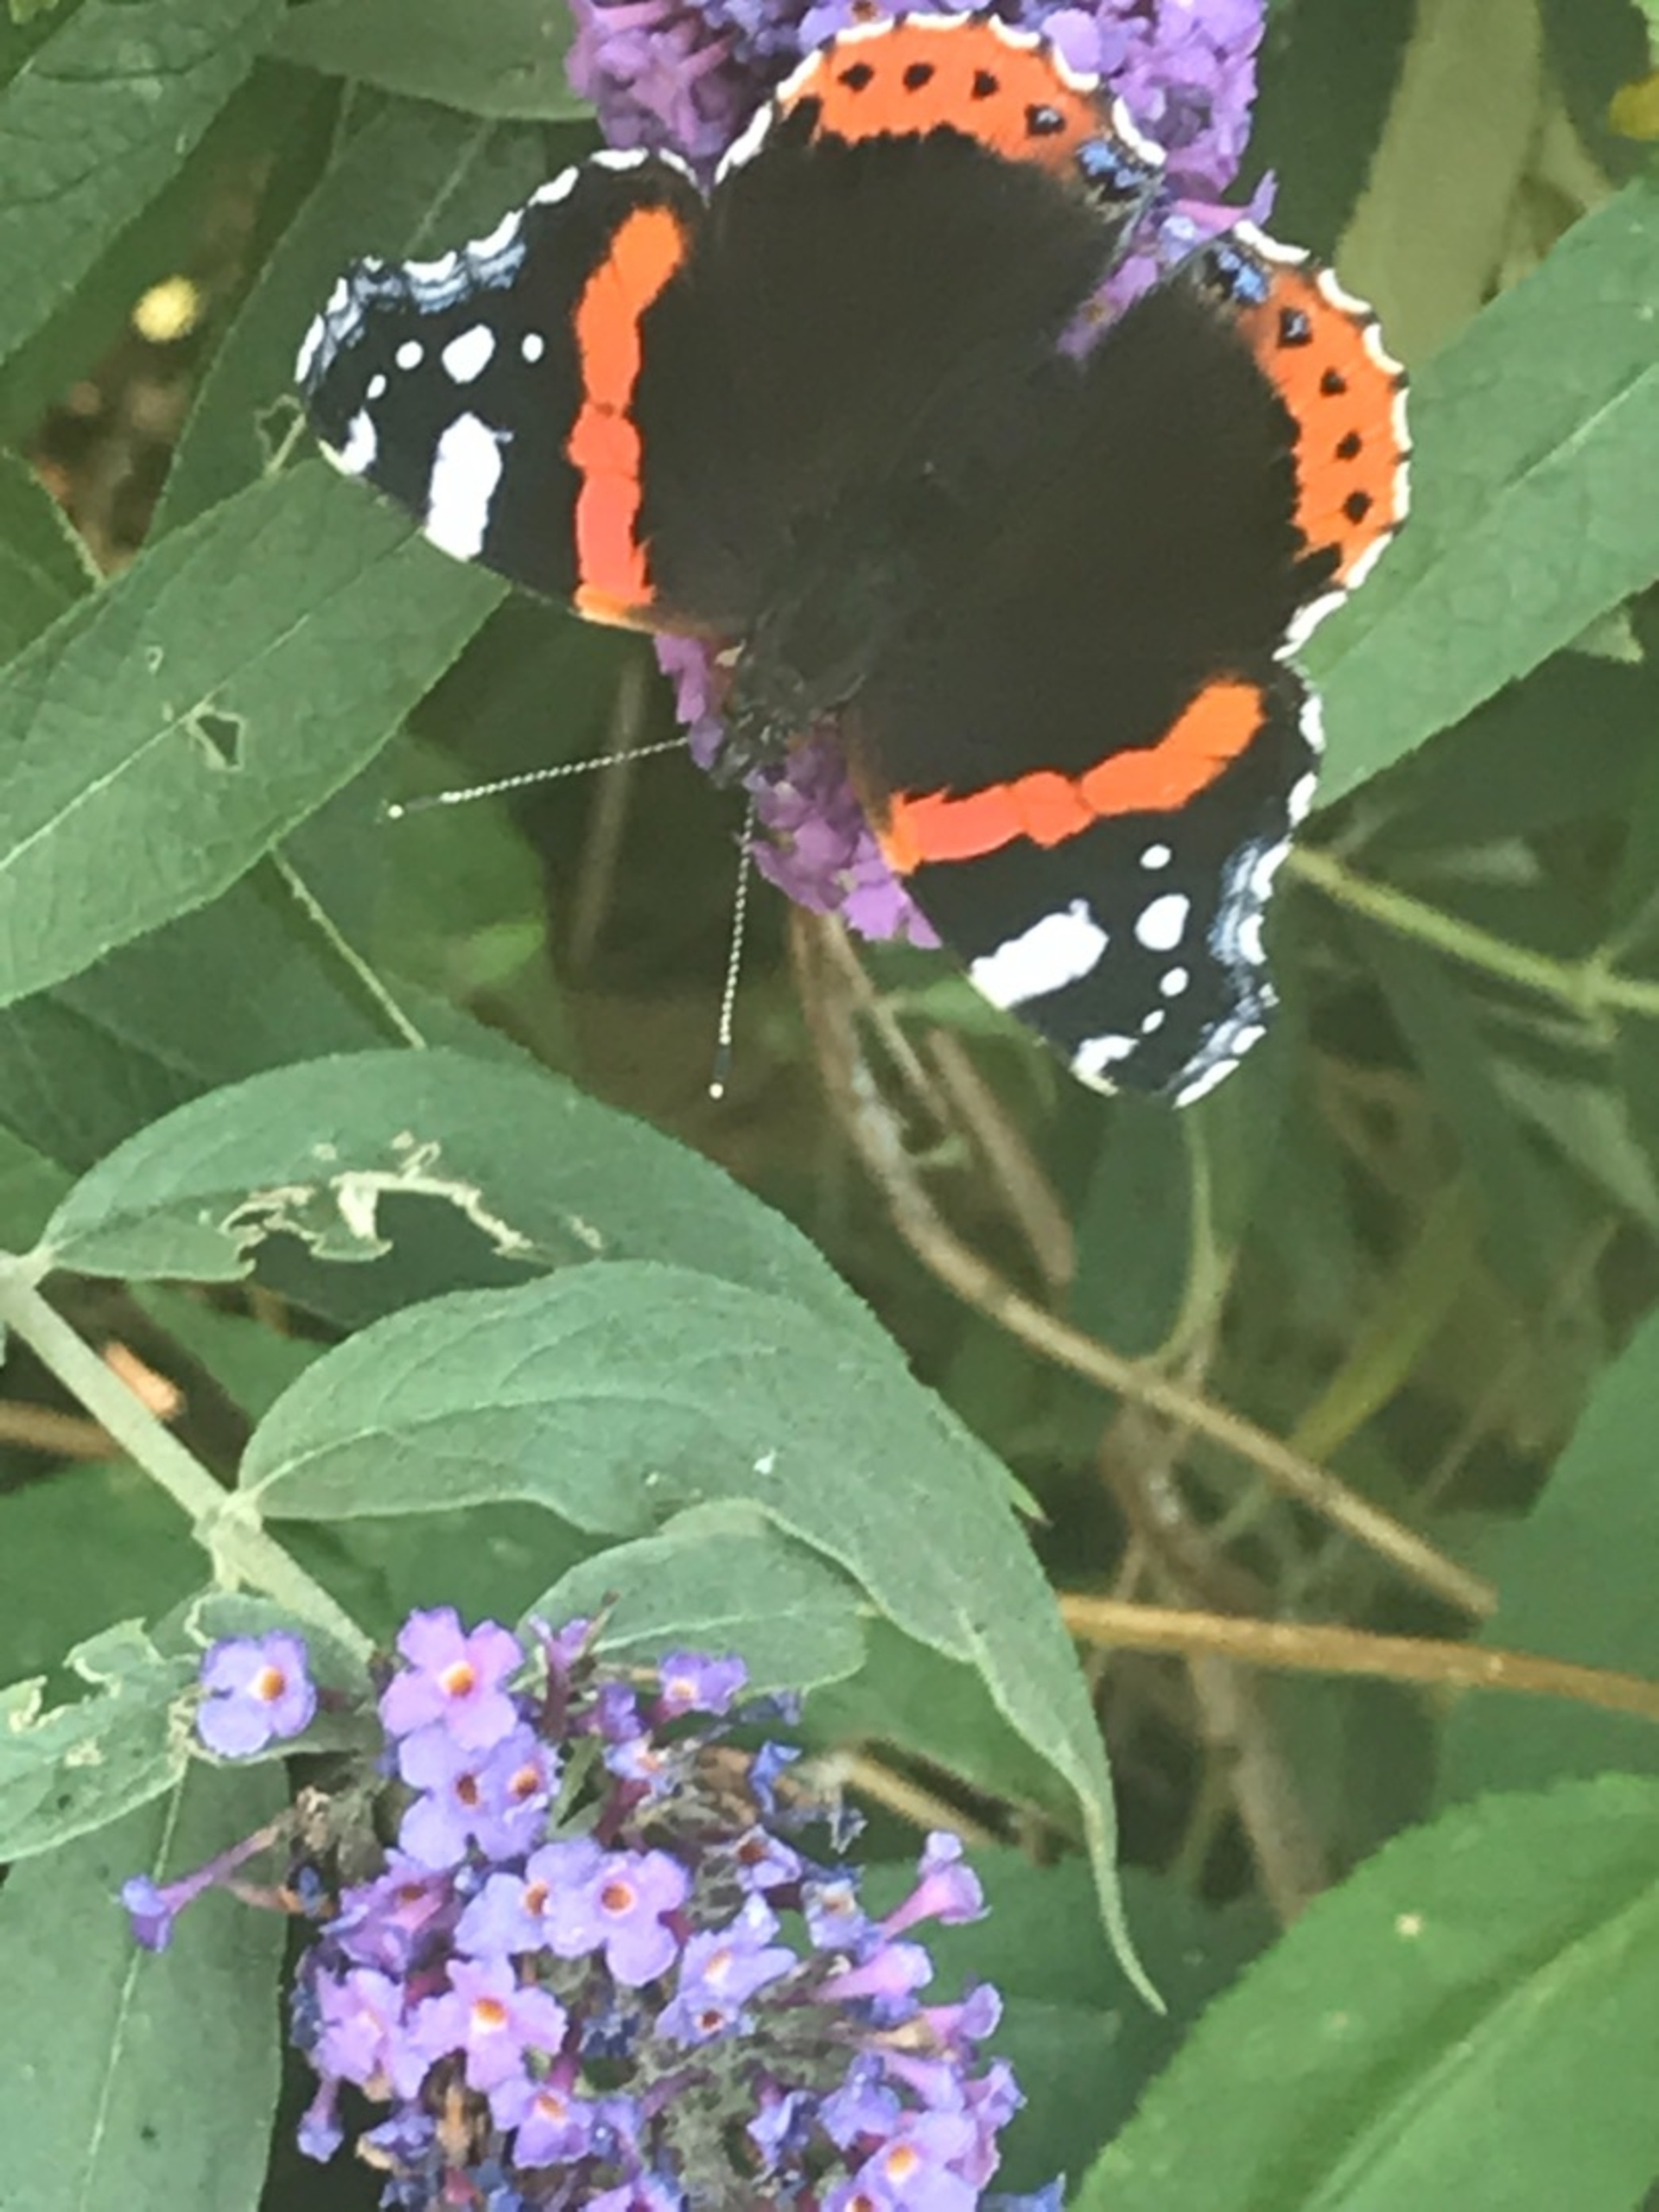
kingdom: Animalia
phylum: Arthropoda
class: Insecta
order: Lepidoptera
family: Nymphalidae
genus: Vanessa
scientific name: Vanessa atalanta
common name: Admiral
